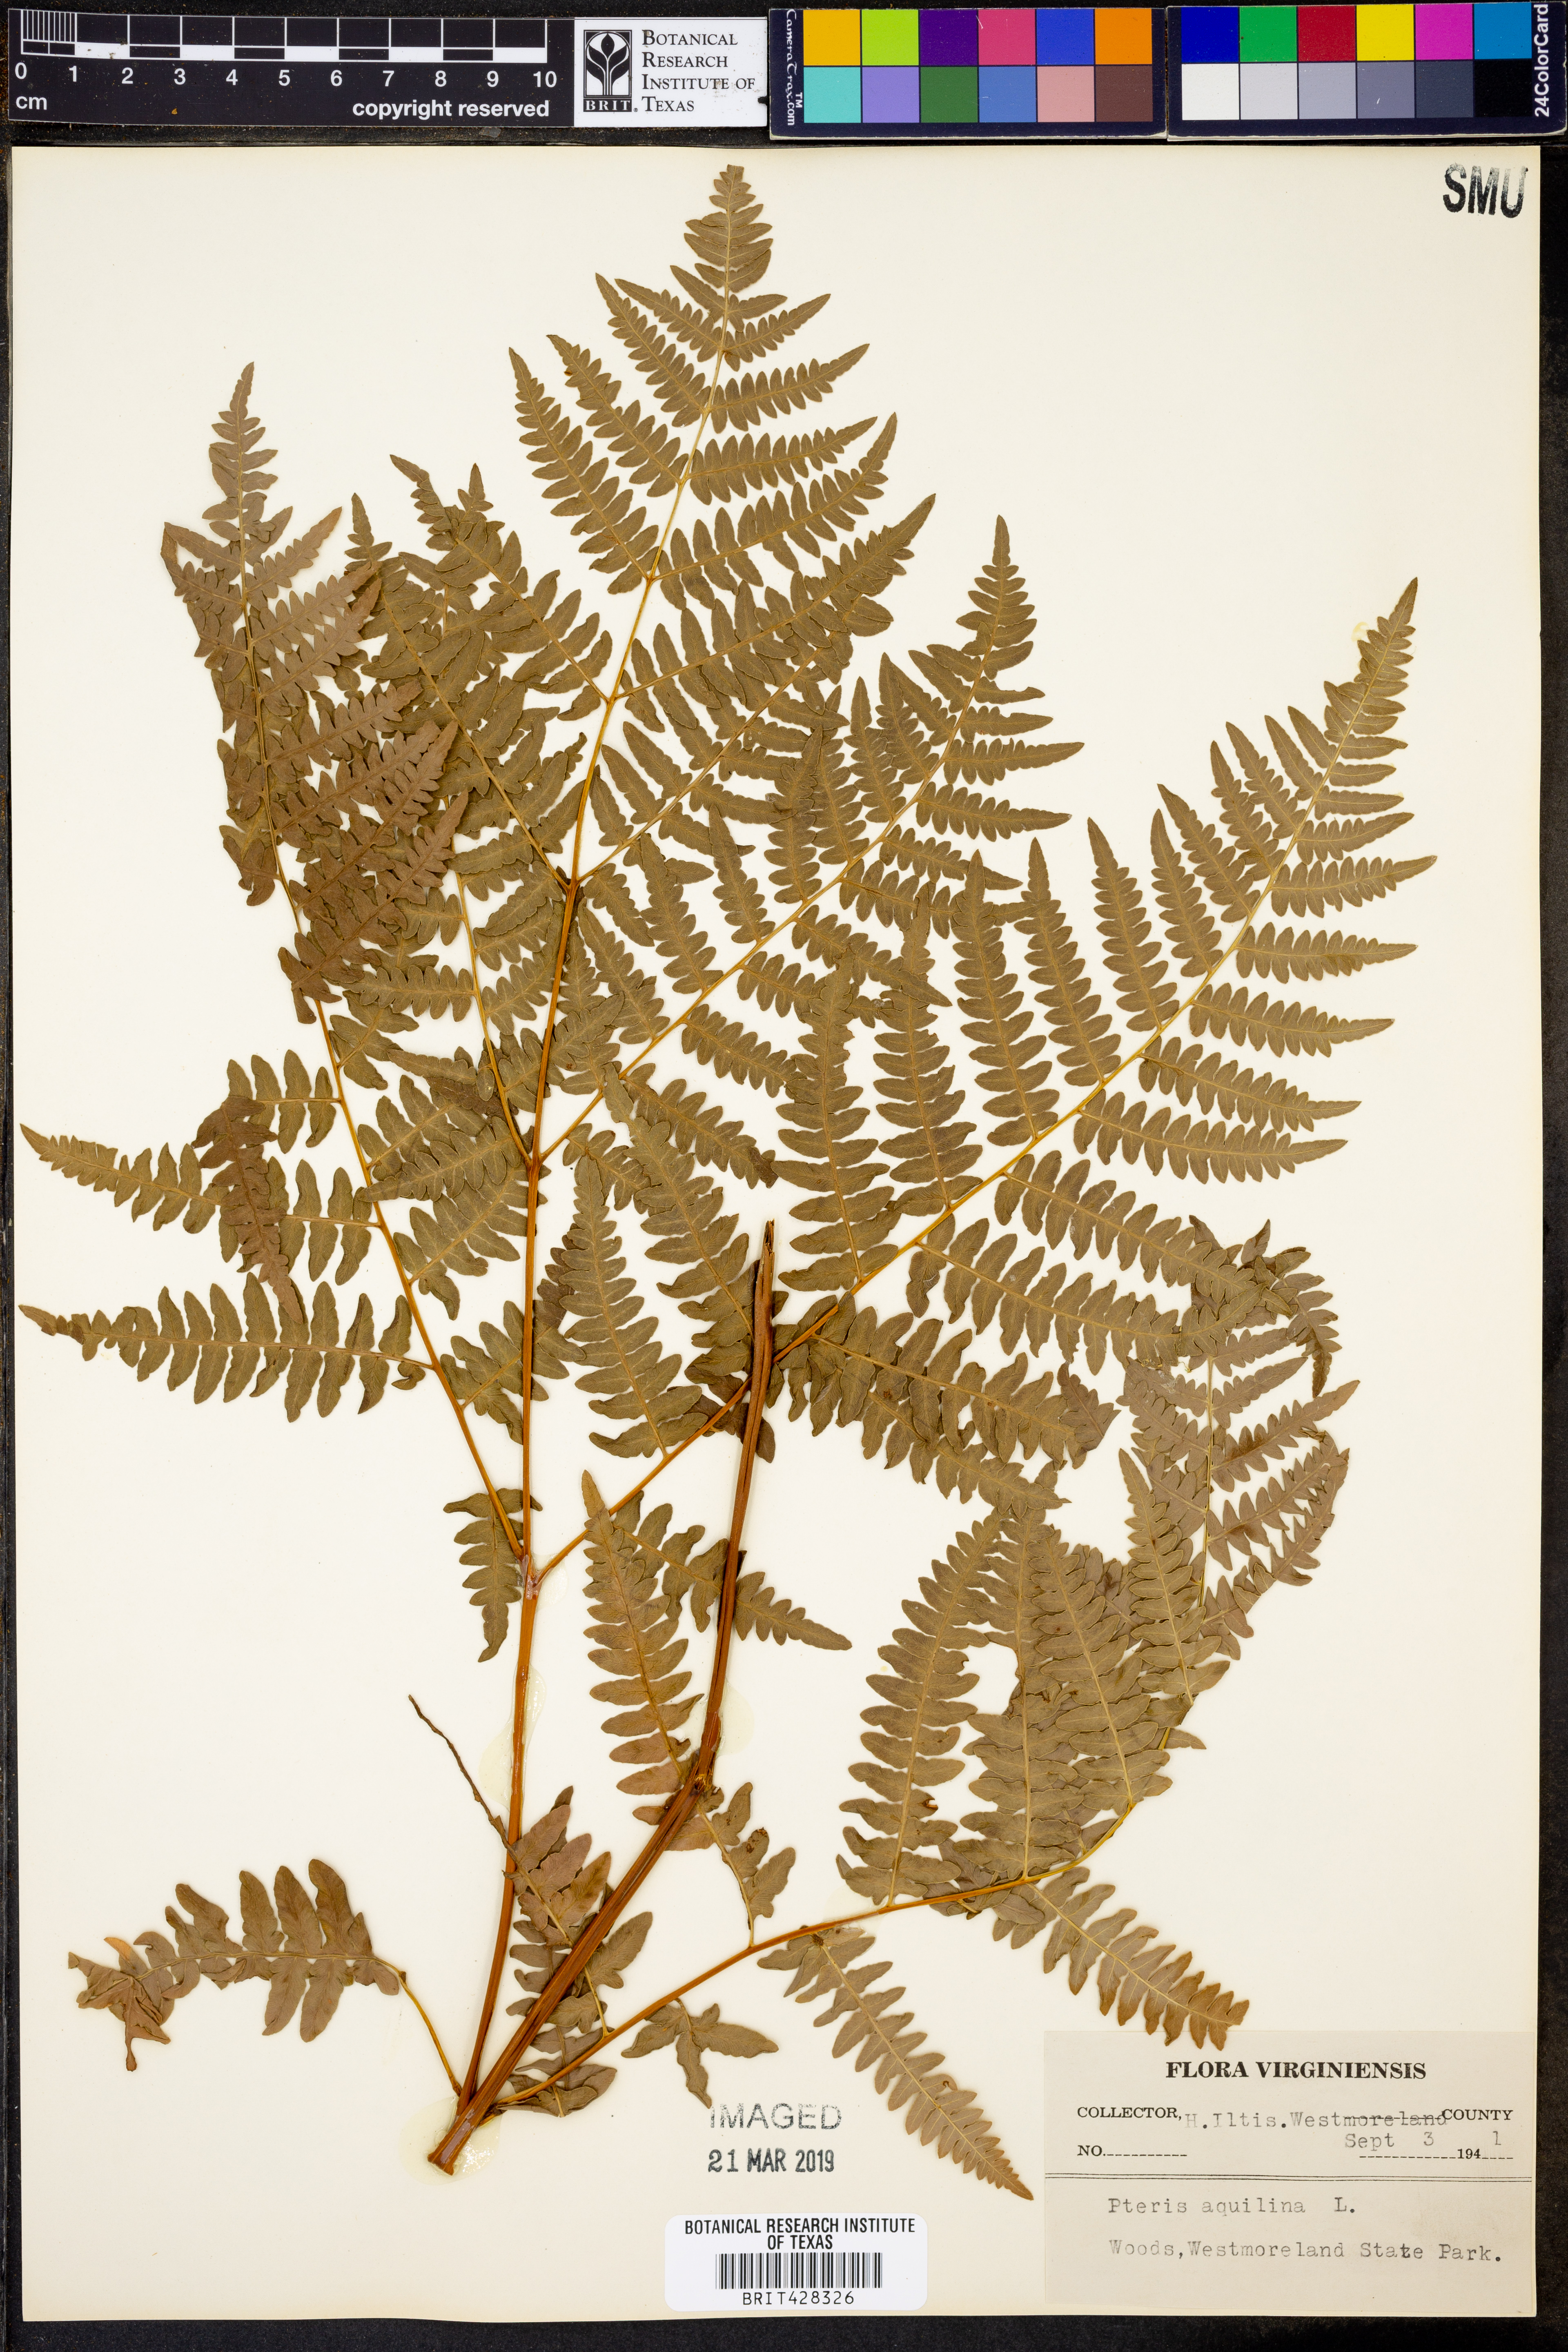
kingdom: Plantae
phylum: Tracheophyta
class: Polypodiopsida
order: Polypodiales
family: Dennstaedtiaceae
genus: Pteridium
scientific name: Pteridium aquilinum
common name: Bracken
